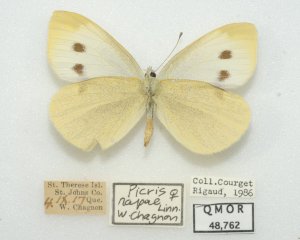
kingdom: Animalia
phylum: Arthropoda
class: Insecta
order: Lepidoptera
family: Pieridae
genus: Pieris
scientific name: Pieris rapae
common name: Cabbage White
